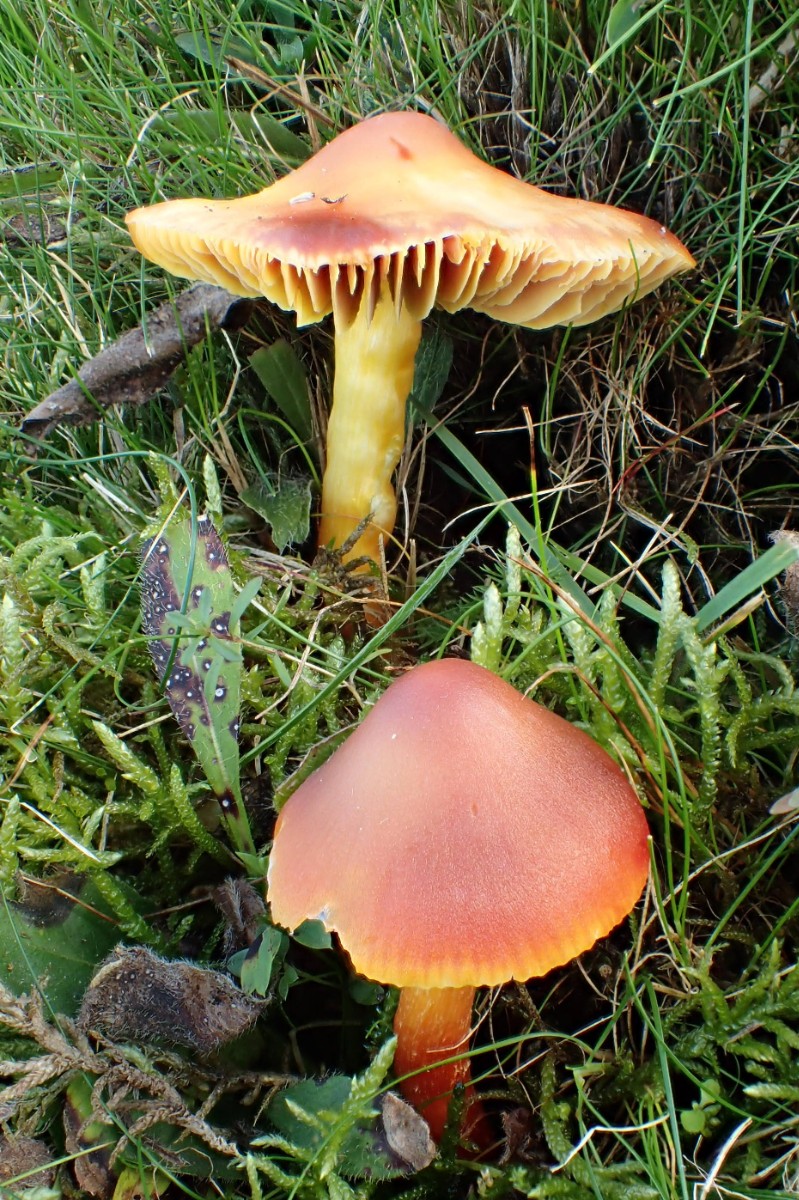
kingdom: Fungi
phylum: Basidiomycota
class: Agaricomycetes
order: Agaricales
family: Hygrophoraceae
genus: Hygrocybe
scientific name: Hygrocybe punicea
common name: skarlagen-vokshat
